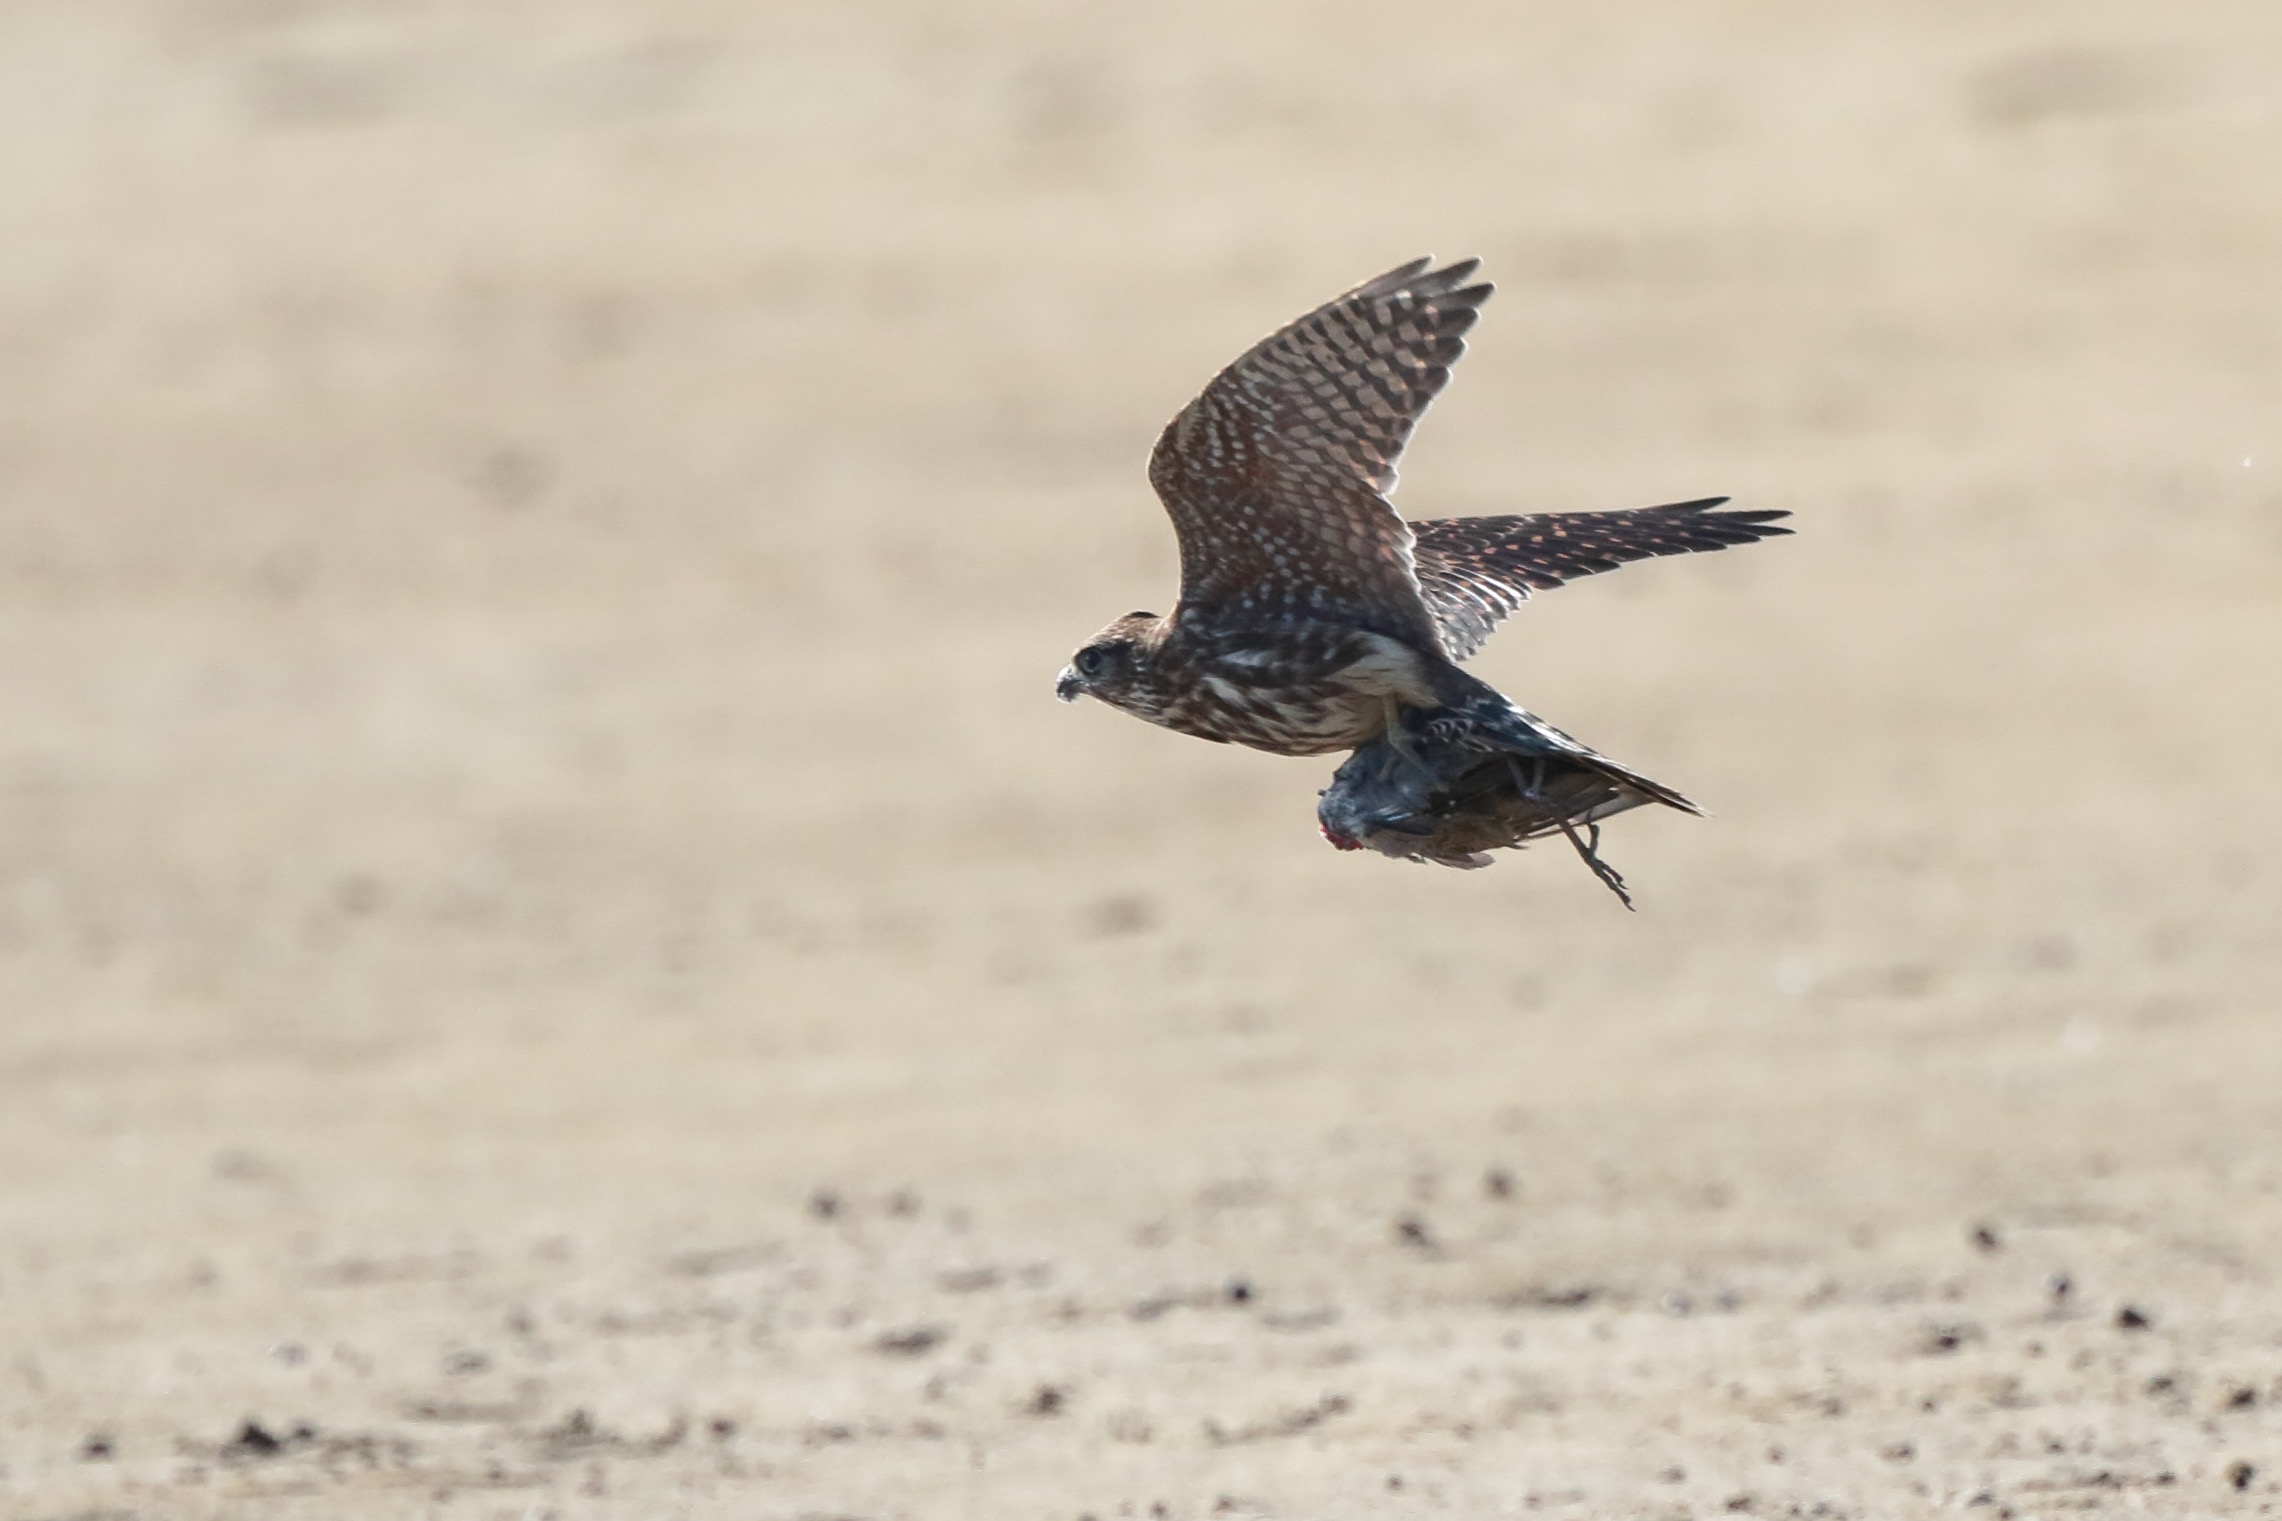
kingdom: Animalia
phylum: Chordata
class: Aves
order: Falconiformes
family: Falconidae
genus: Falco
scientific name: Falco columbarius
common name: Dværgfalk
